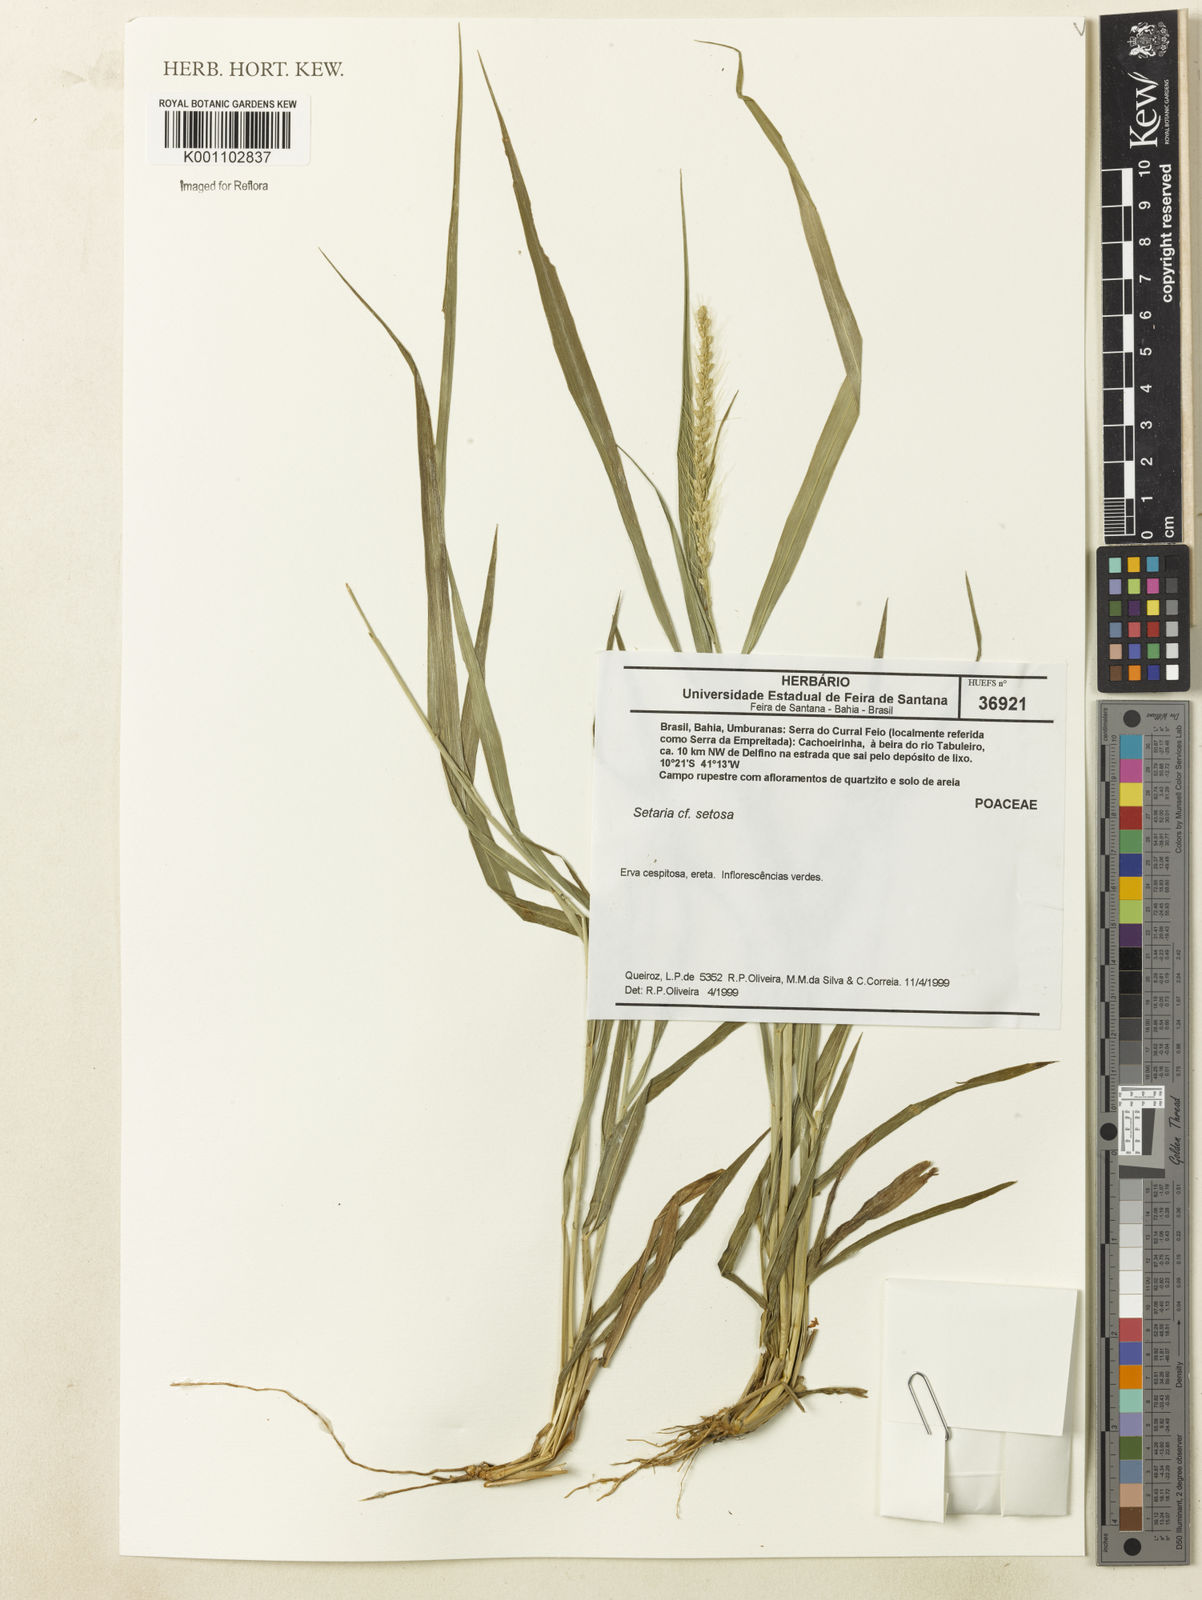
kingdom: Plantae
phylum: Tracheophyta
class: Liliopsida
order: Poales
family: Poaceae
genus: Setaria
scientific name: Setaria setosa
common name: West indies bristle grass
